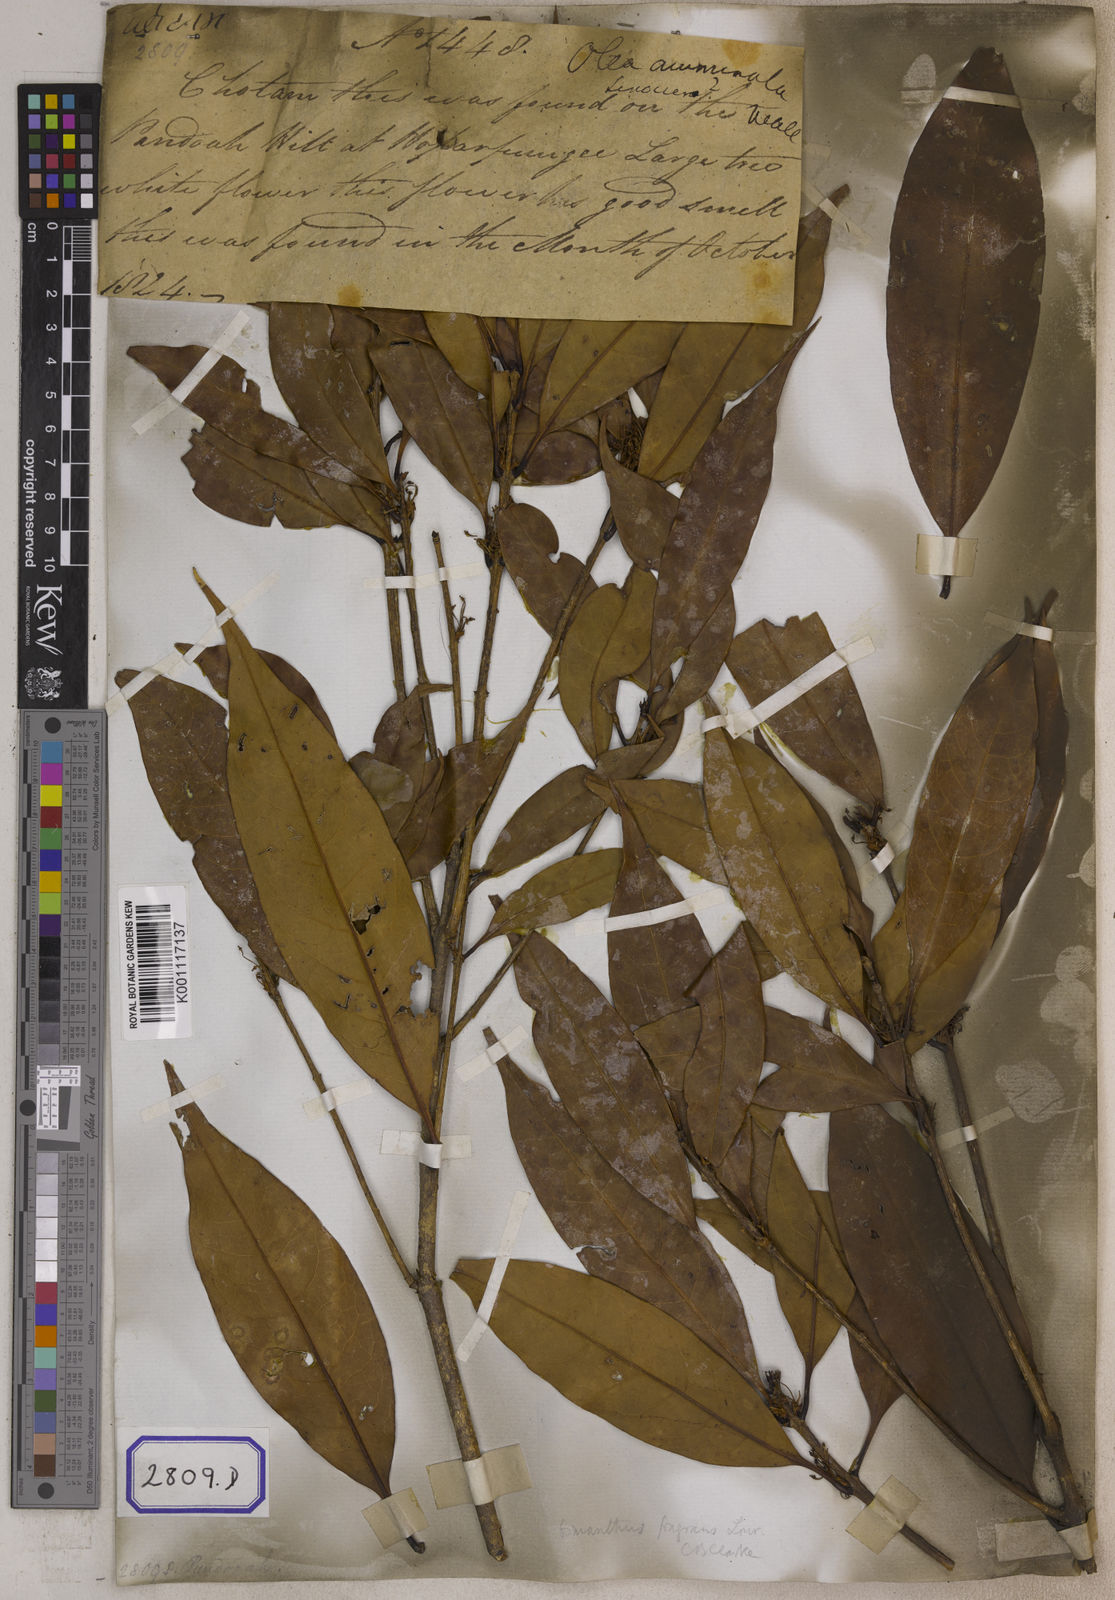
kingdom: Plantae
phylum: Tracheophyta
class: Magnoliopsida
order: Lamiales
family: Oleaceae
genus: Olea
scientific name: Olea
